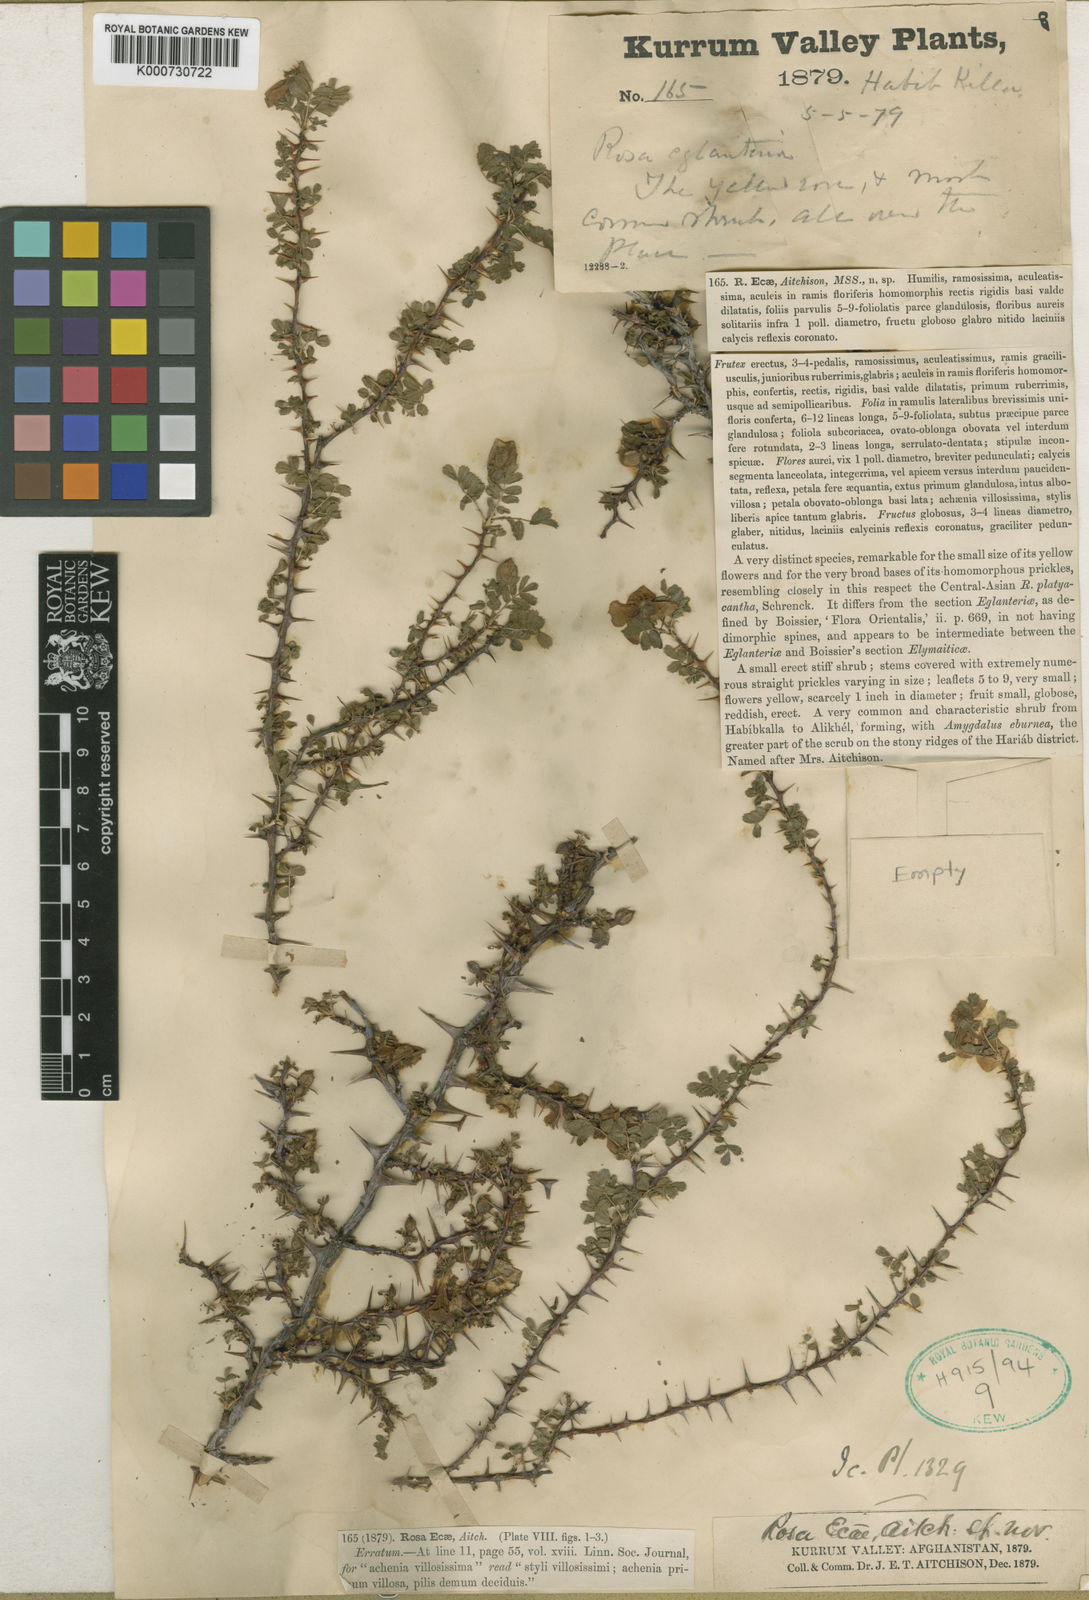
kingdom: Plantae
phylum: Tracheophyta
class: Magnoliopsida
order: Rosales
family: Rosaceae
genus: Rosa
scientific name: Rosa ecae
